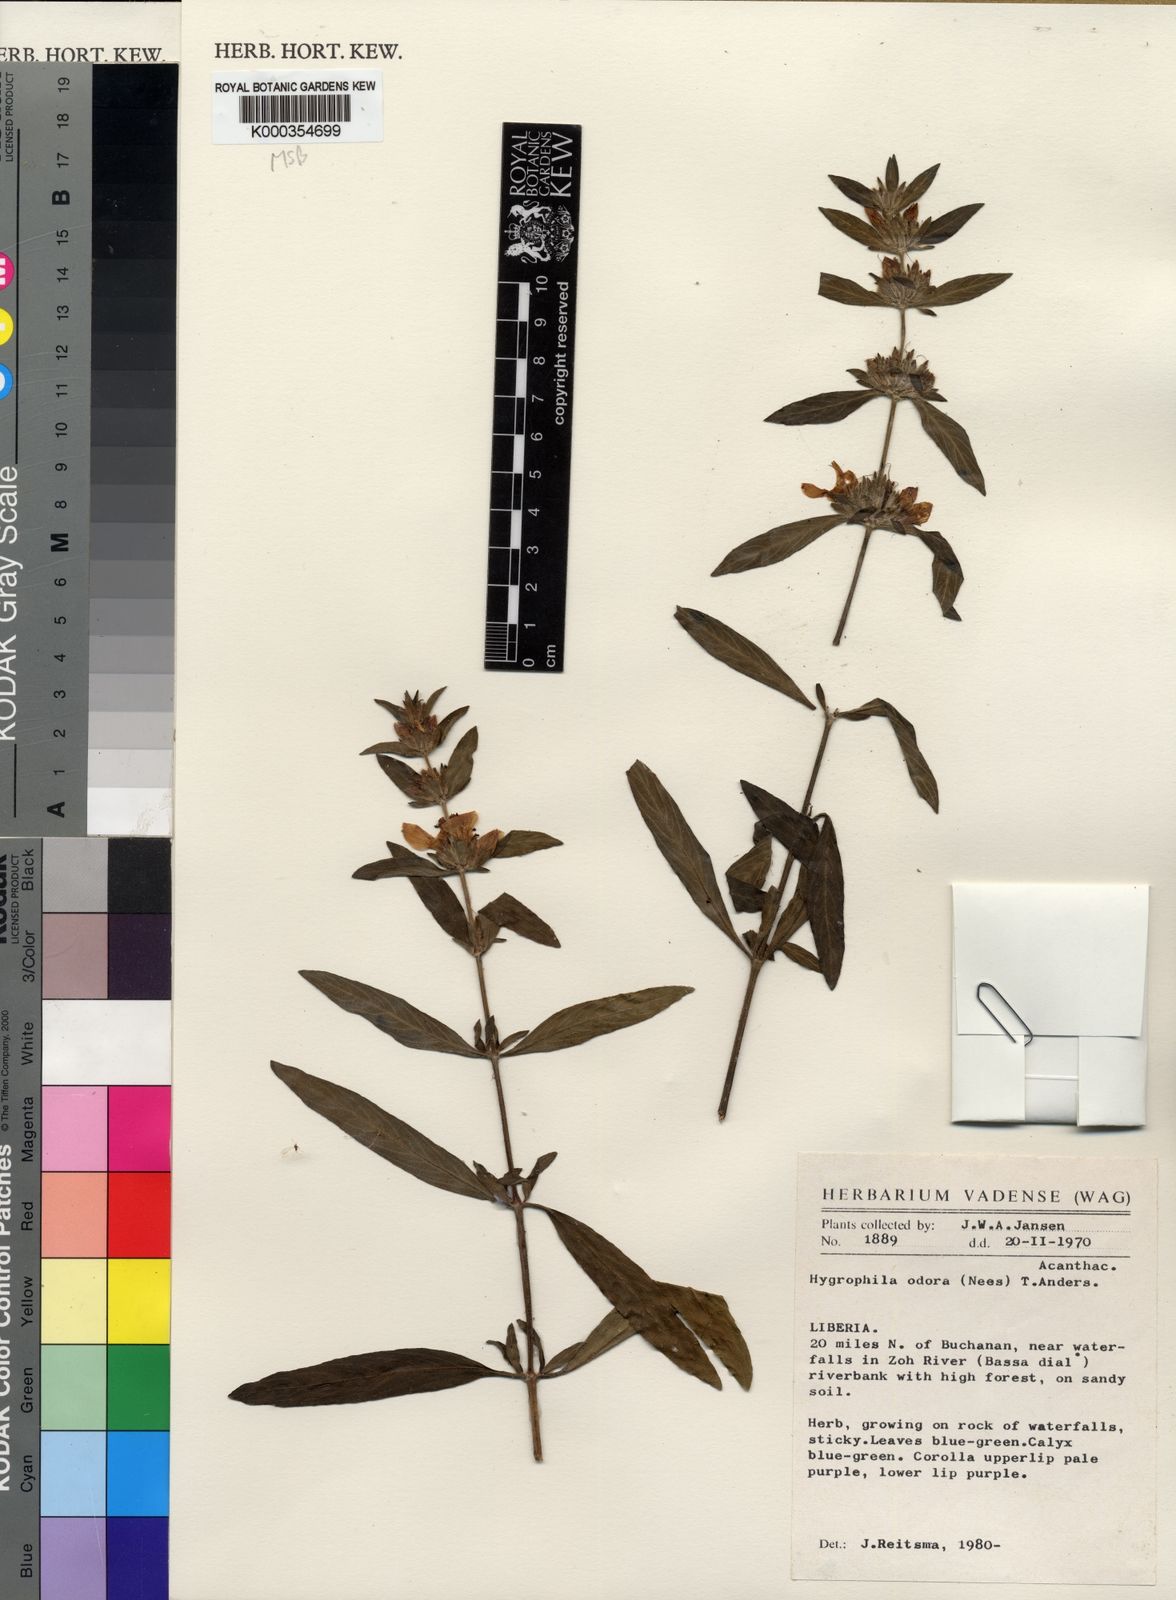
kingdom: Plantae
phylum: Tracheophyta
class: Magnoliopsida
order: Lamiales
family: Acanthaceae
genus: Hygrophila
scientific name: Hygrophila odora
